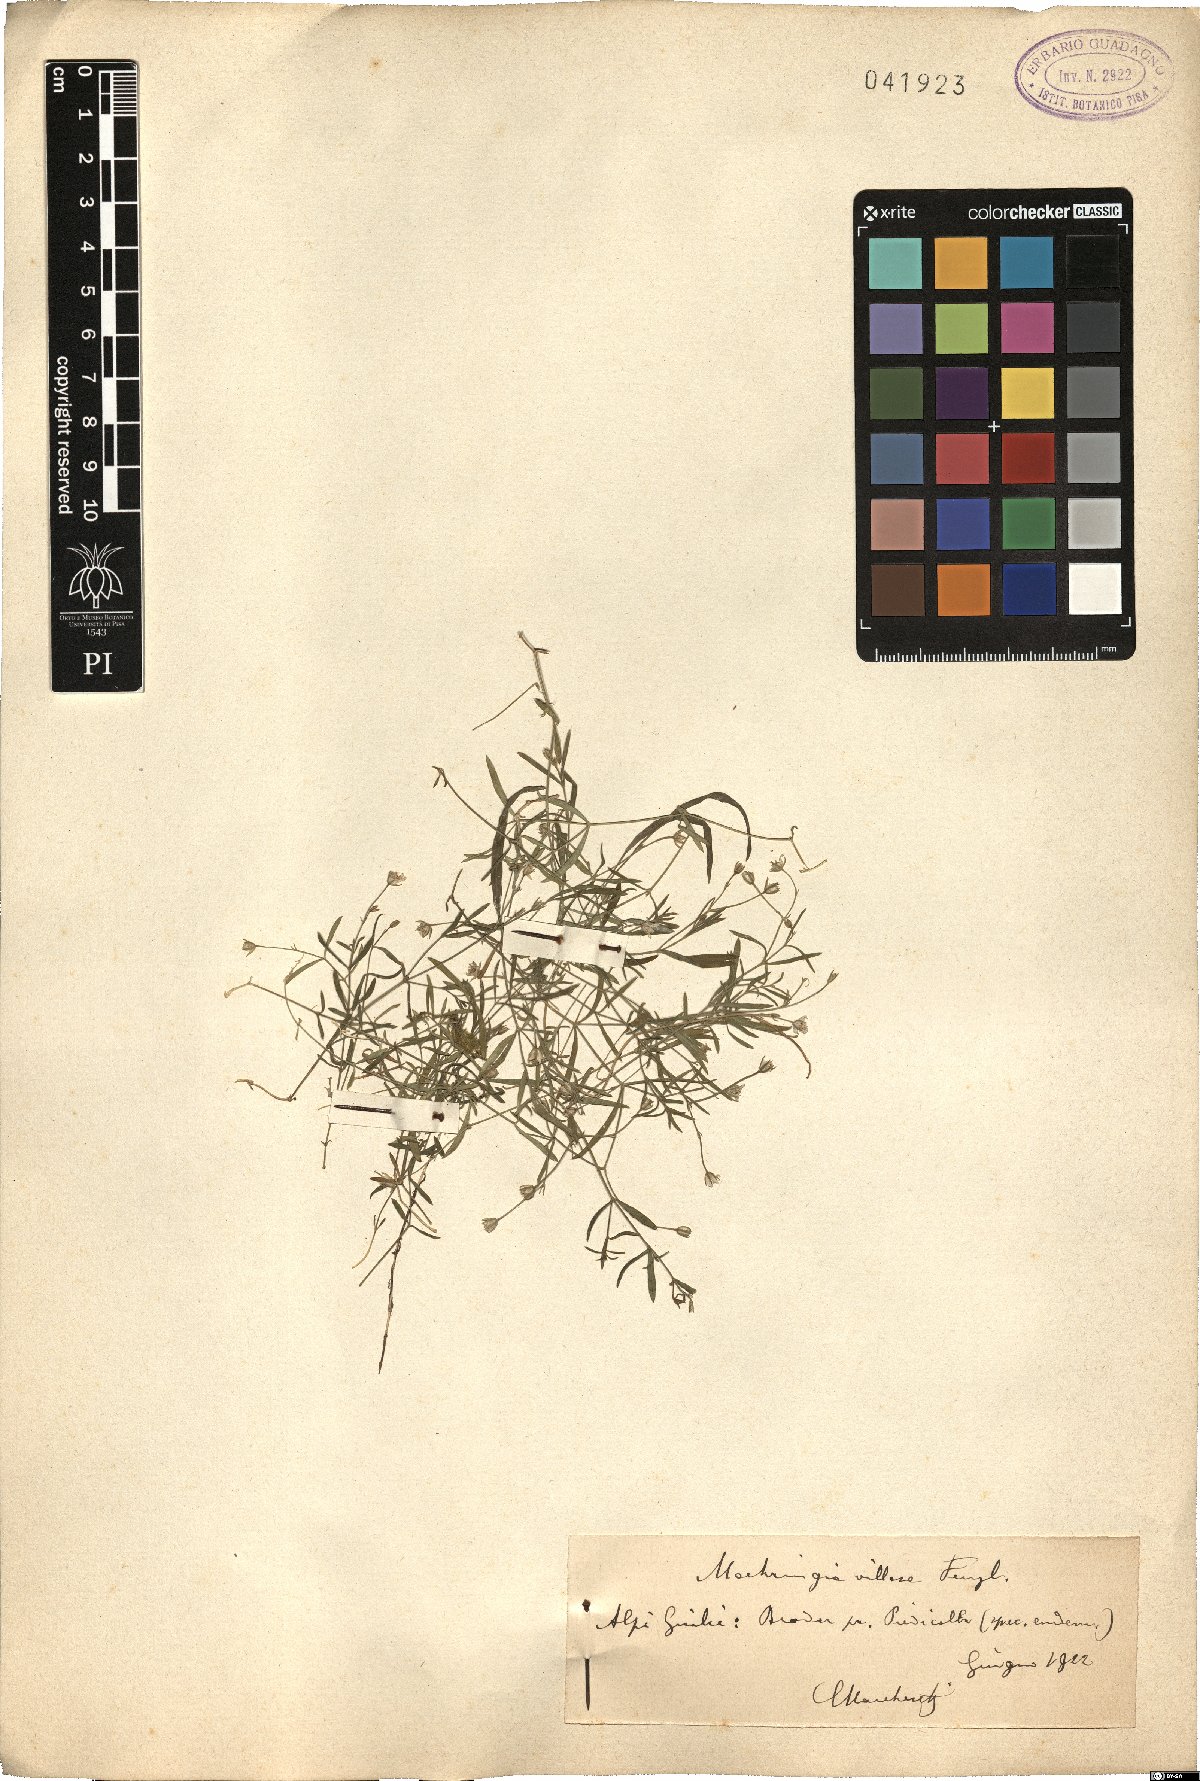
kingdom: Plantae
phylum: Tracheophyta
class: Magnoliopsida
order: Caryophyllales
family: Caryophyllaceae
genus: Moehringia
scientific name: Moehringia villosa
